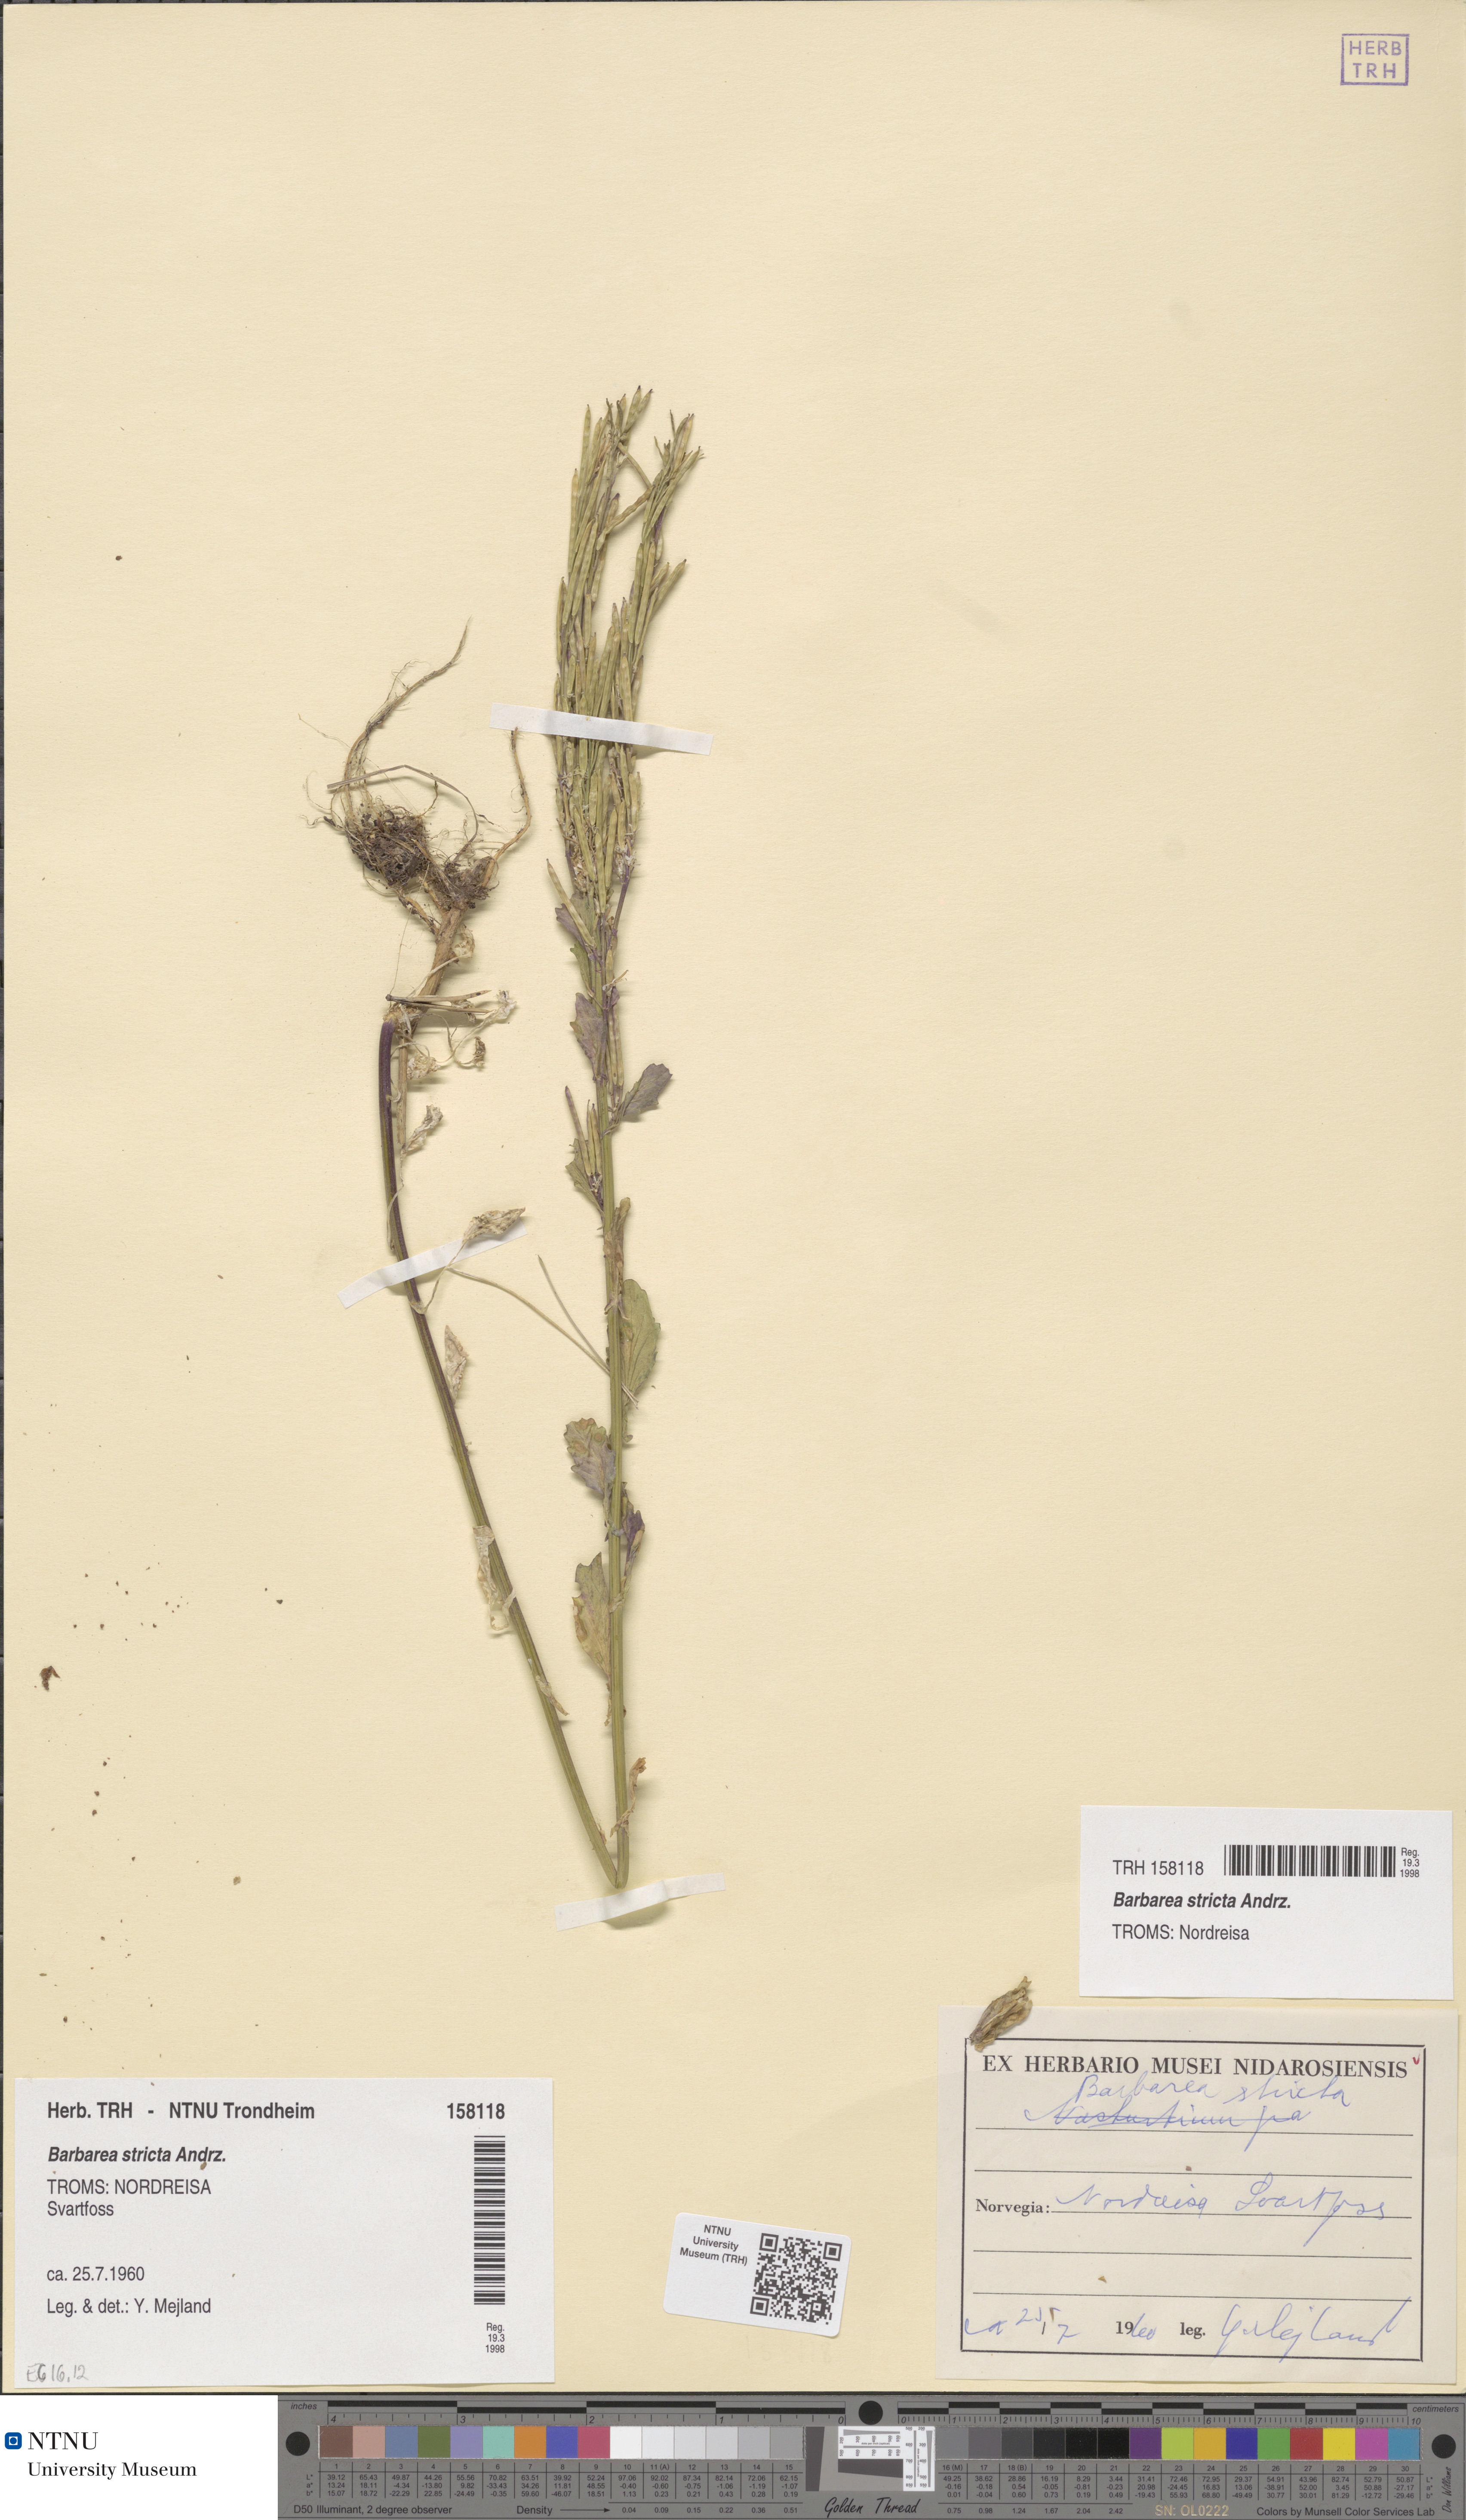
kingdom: Plantae
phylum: Tracheophyta
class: Magnoliopsida
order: Brassicales
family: Brassicaceae
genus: Barbarea
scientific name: Barbarea stricta
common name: Small-flowered winter-cress
